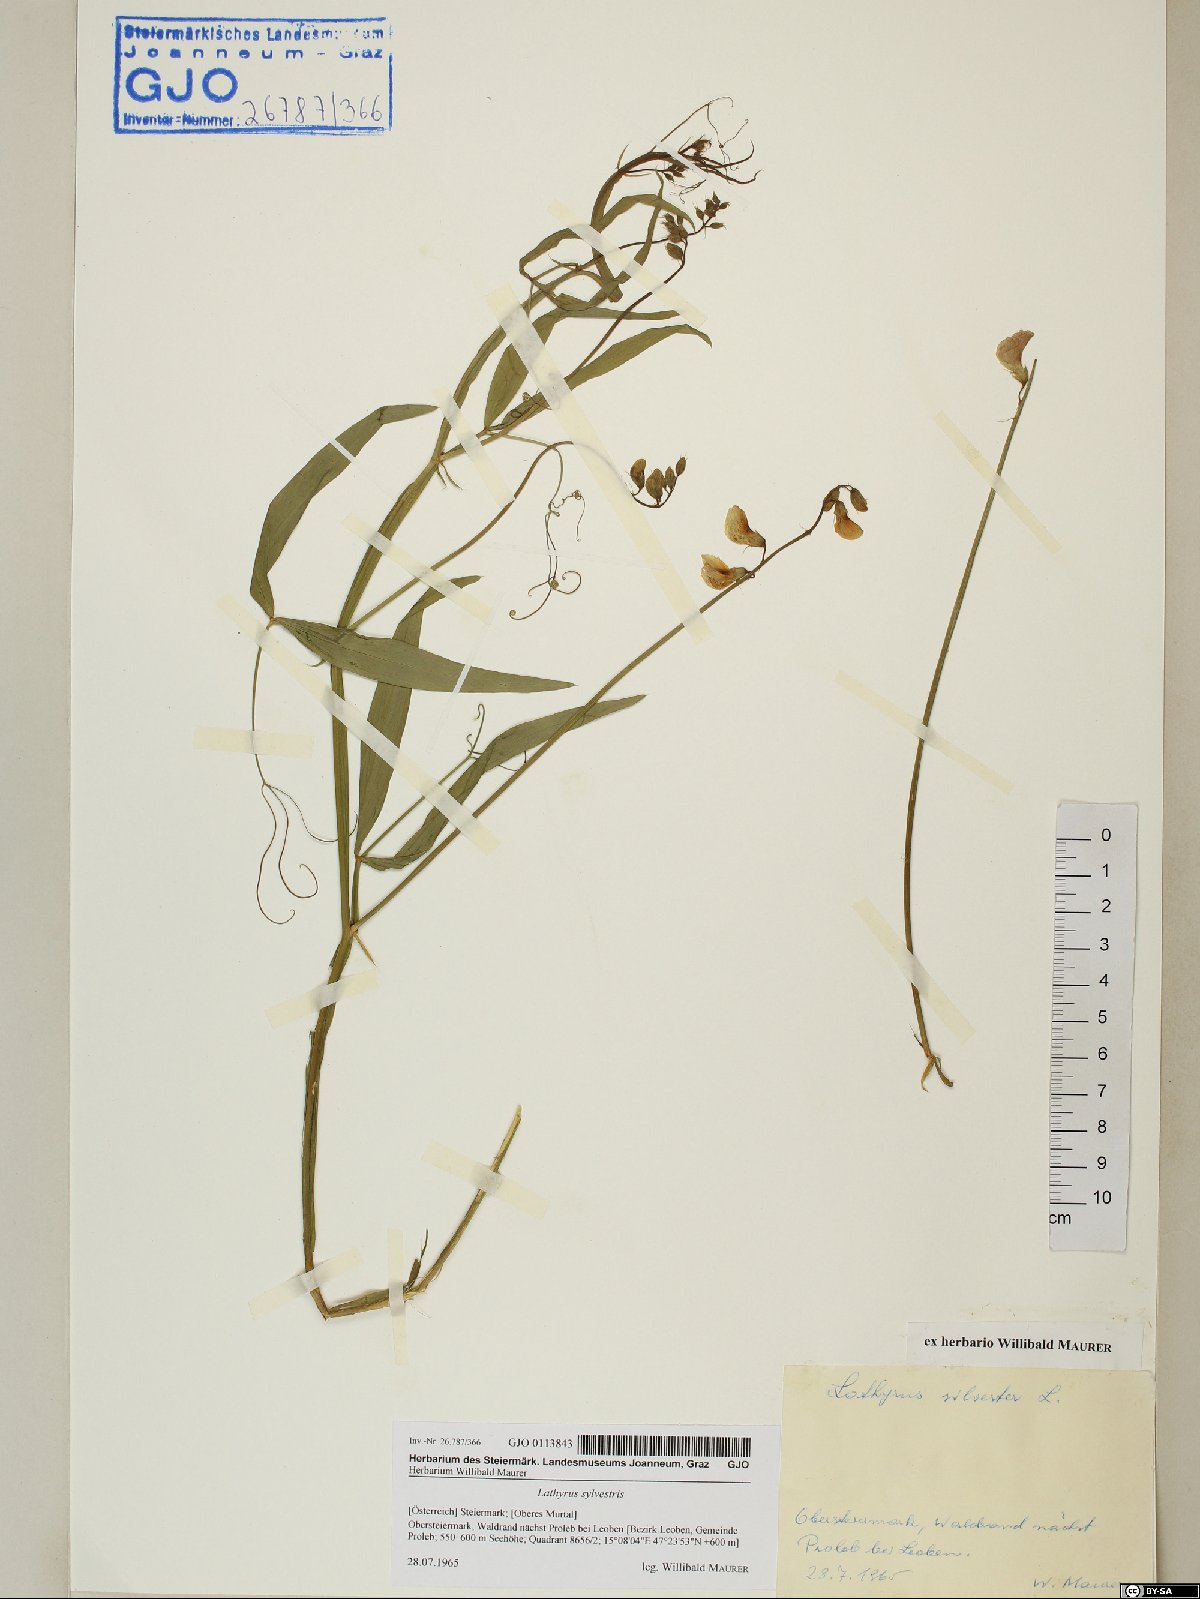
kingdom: Plantae
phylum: Tracheophyta
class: Magnoliopsida
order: Fabales
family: Fabaceae
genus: Lathyrus
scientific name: Lathyrus sylvestris
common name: Flat pea
